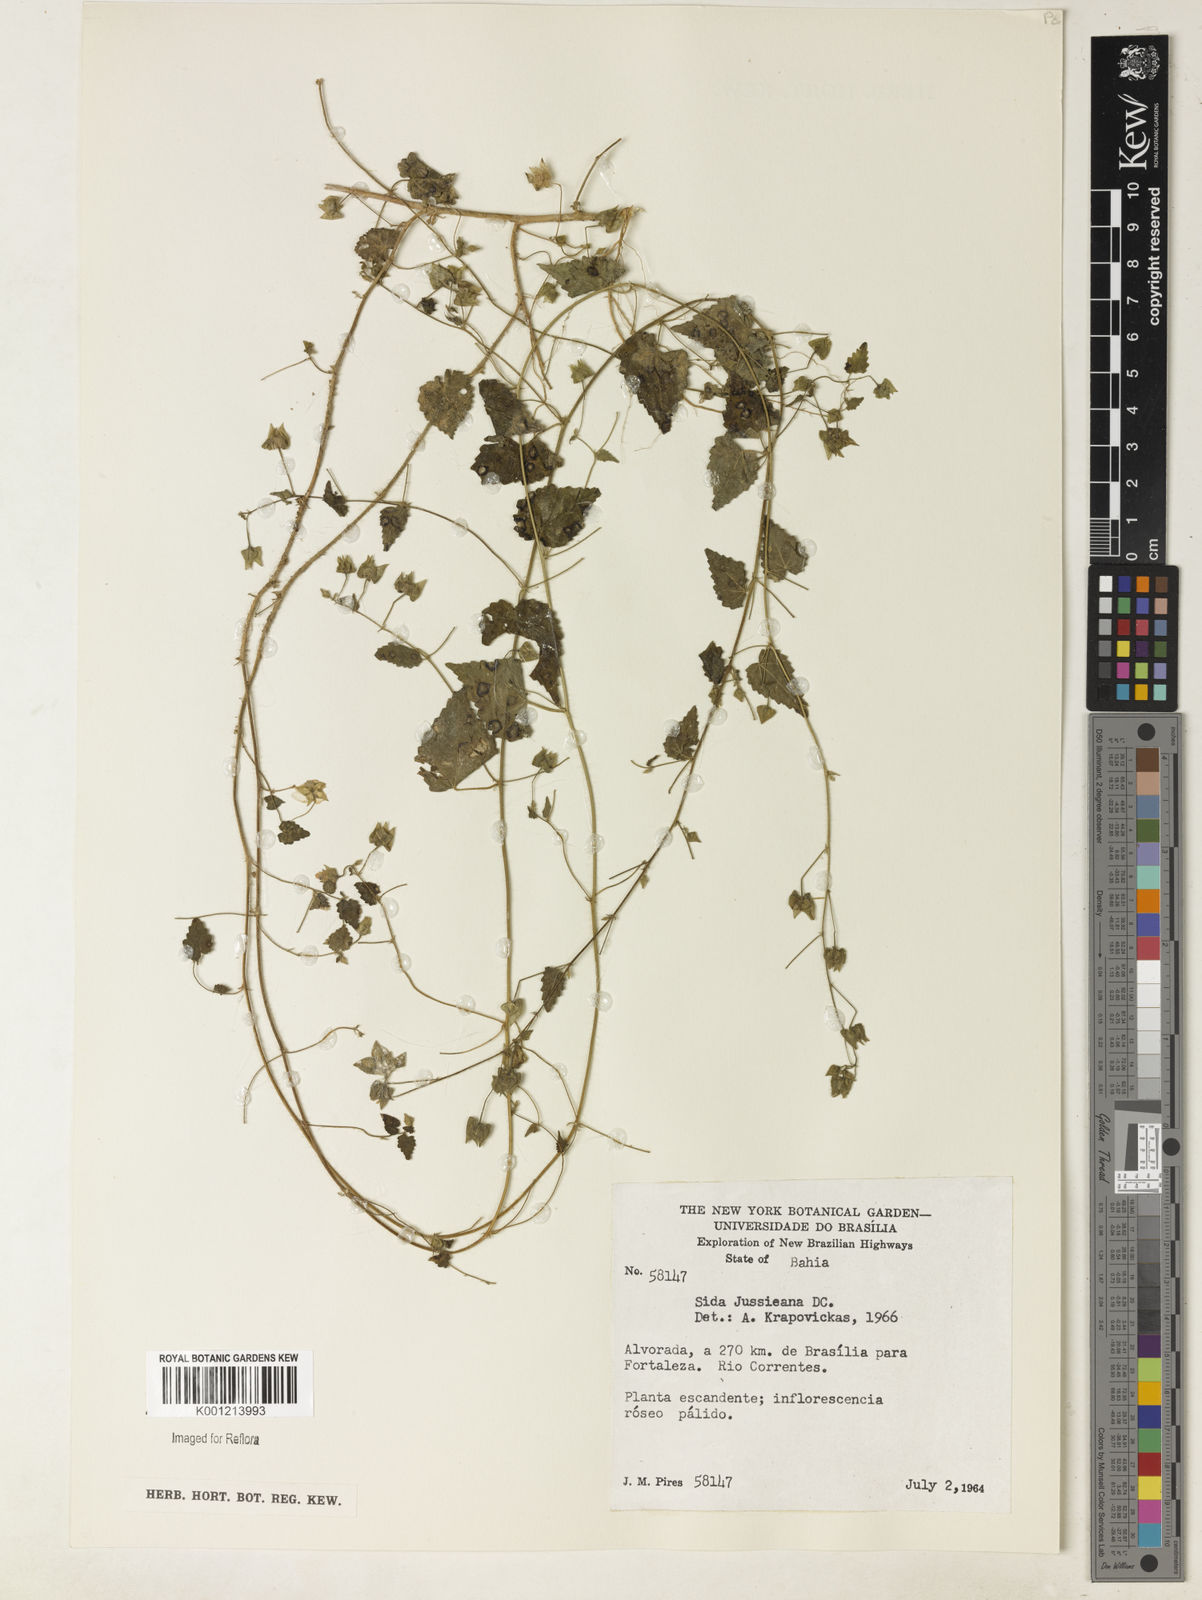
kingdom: Plantae
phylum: Tracheophyta
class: Magnoliopsida
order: Malvales
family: Malvaceae
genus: Sida
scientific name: Sida jussieana
